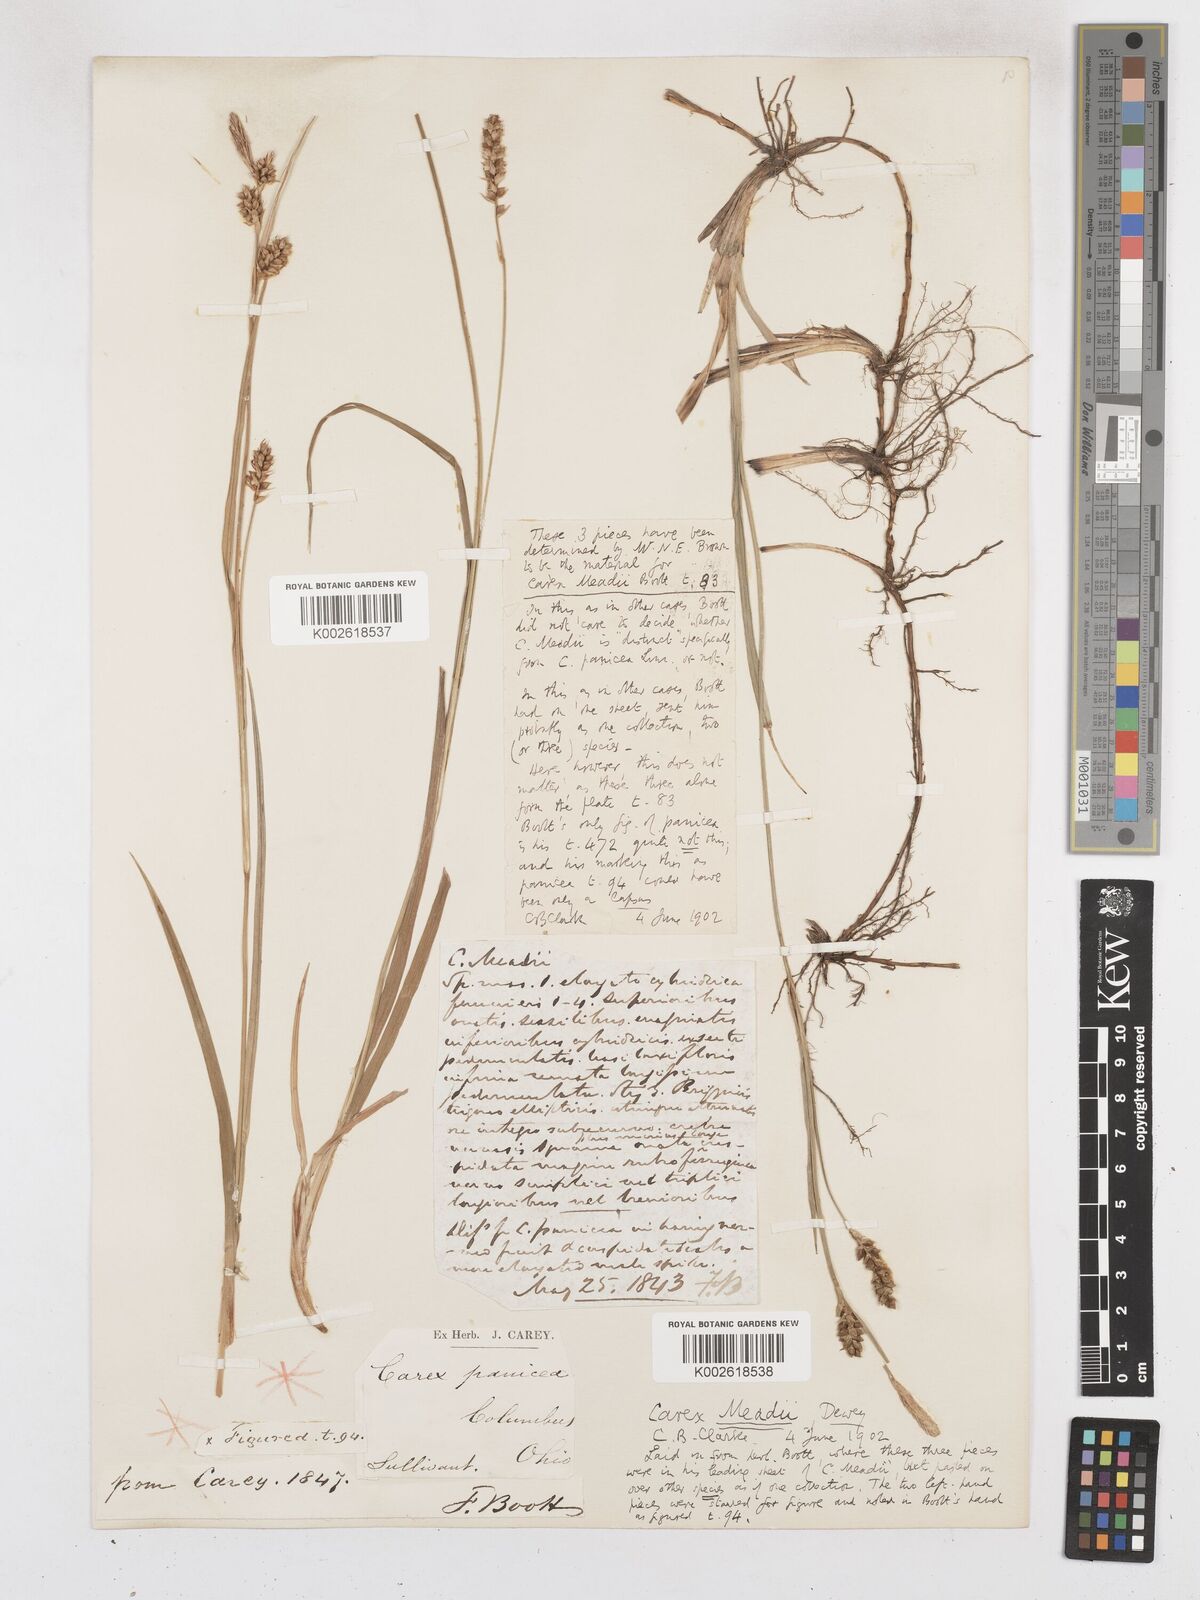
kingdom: Plantae
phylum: Tracheophyta
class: Liliopsida
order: Poales
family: Cyperaceae
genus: Carex
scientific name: Carex meadii
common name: Mead's sedge
